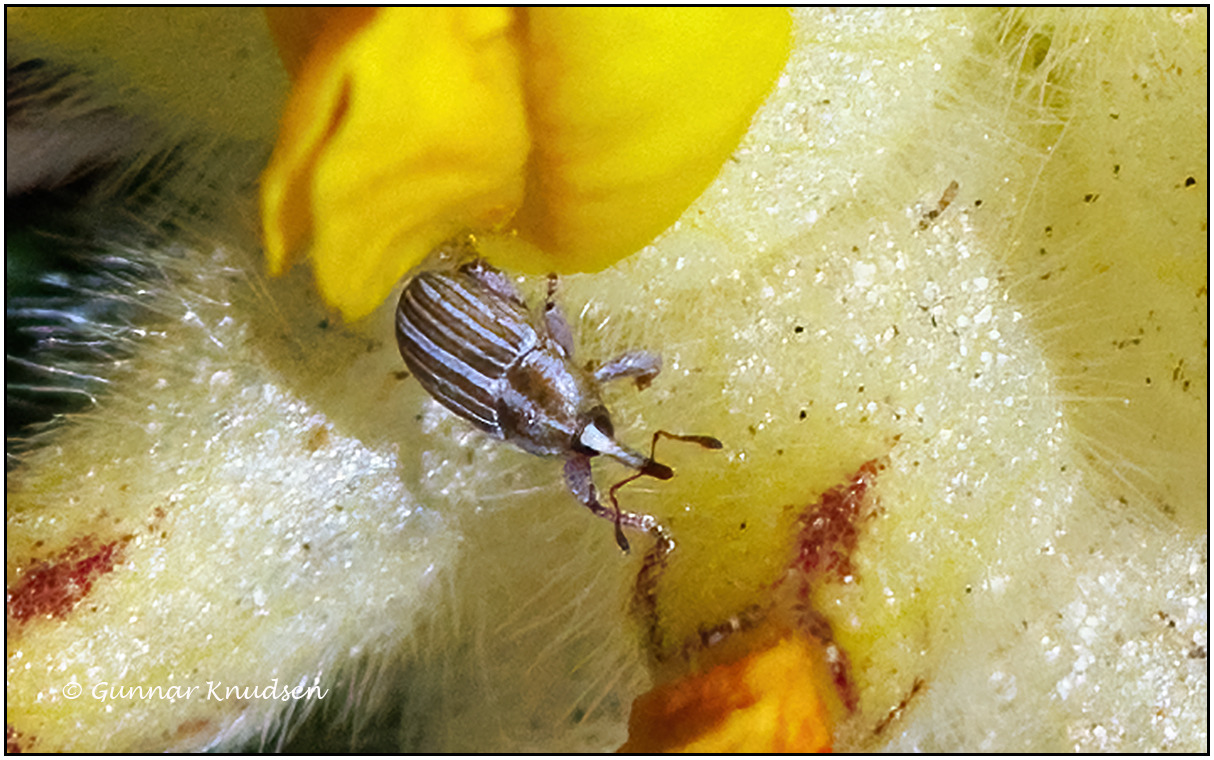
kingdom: Animalia
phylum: Arthropoda
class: Insecta
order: Coleoptera
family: Curculionidae
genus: Tychius
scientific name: Tychius schneideri
